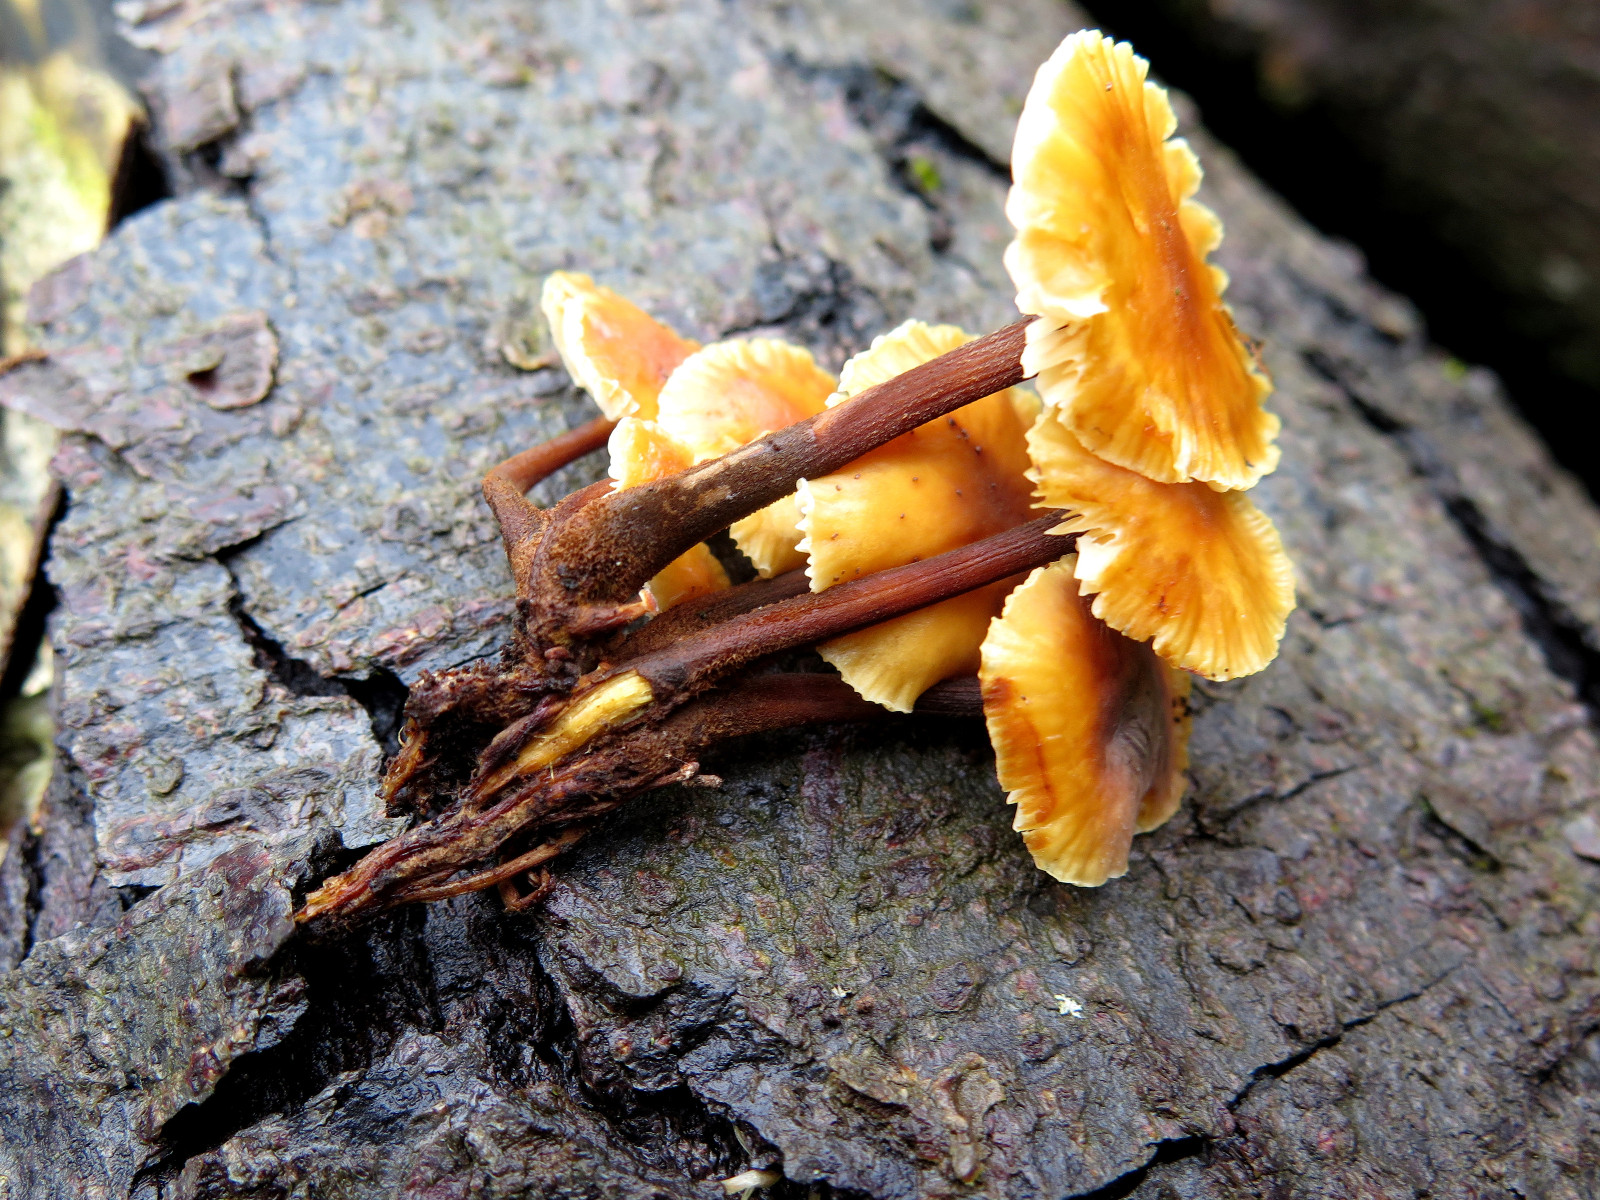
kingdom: Fungi
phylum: Basidiomycota
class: Agaricomycetes
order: Agaricales
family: Physalacriaceae
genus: Flammulina
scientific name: Flammulina velutipes
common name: gul fløjlsfod
